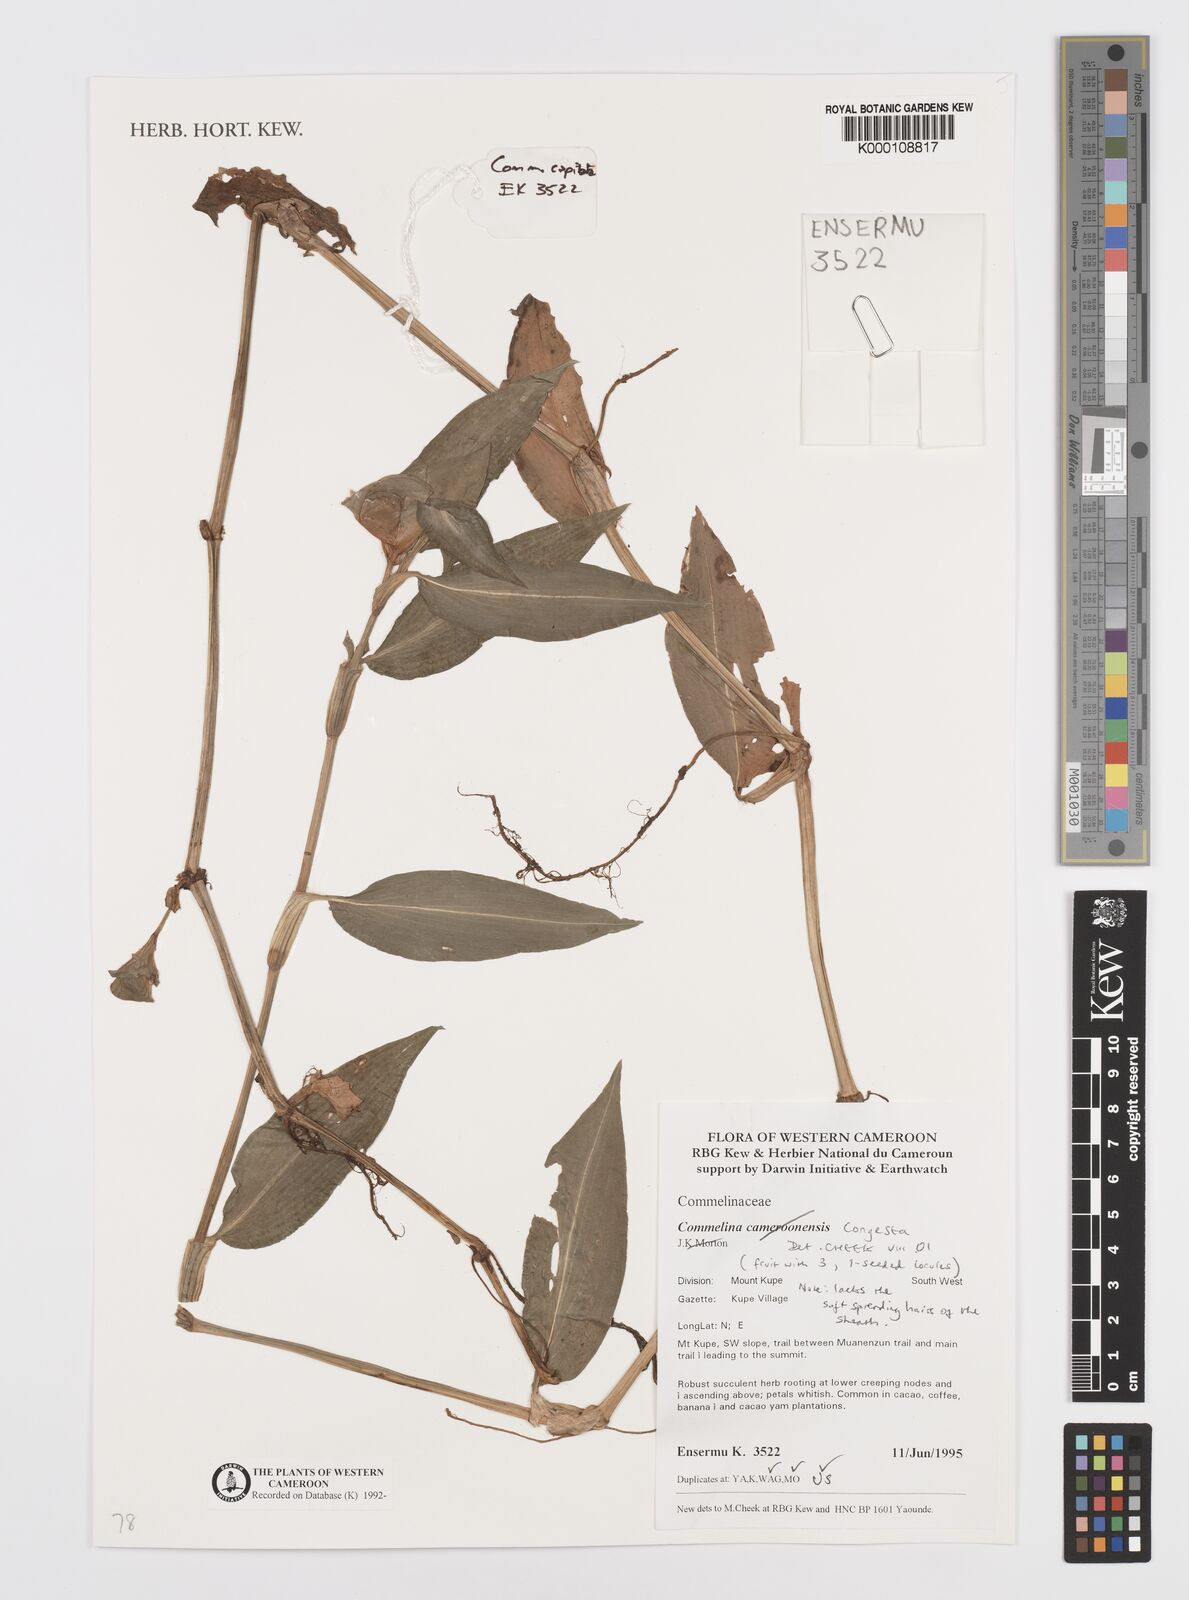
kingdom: Plantae
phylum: Tracheophyta
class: Liliopsida
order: Commelinales
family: Commelinaceae
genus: Commelina
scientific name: Commelina congesta
